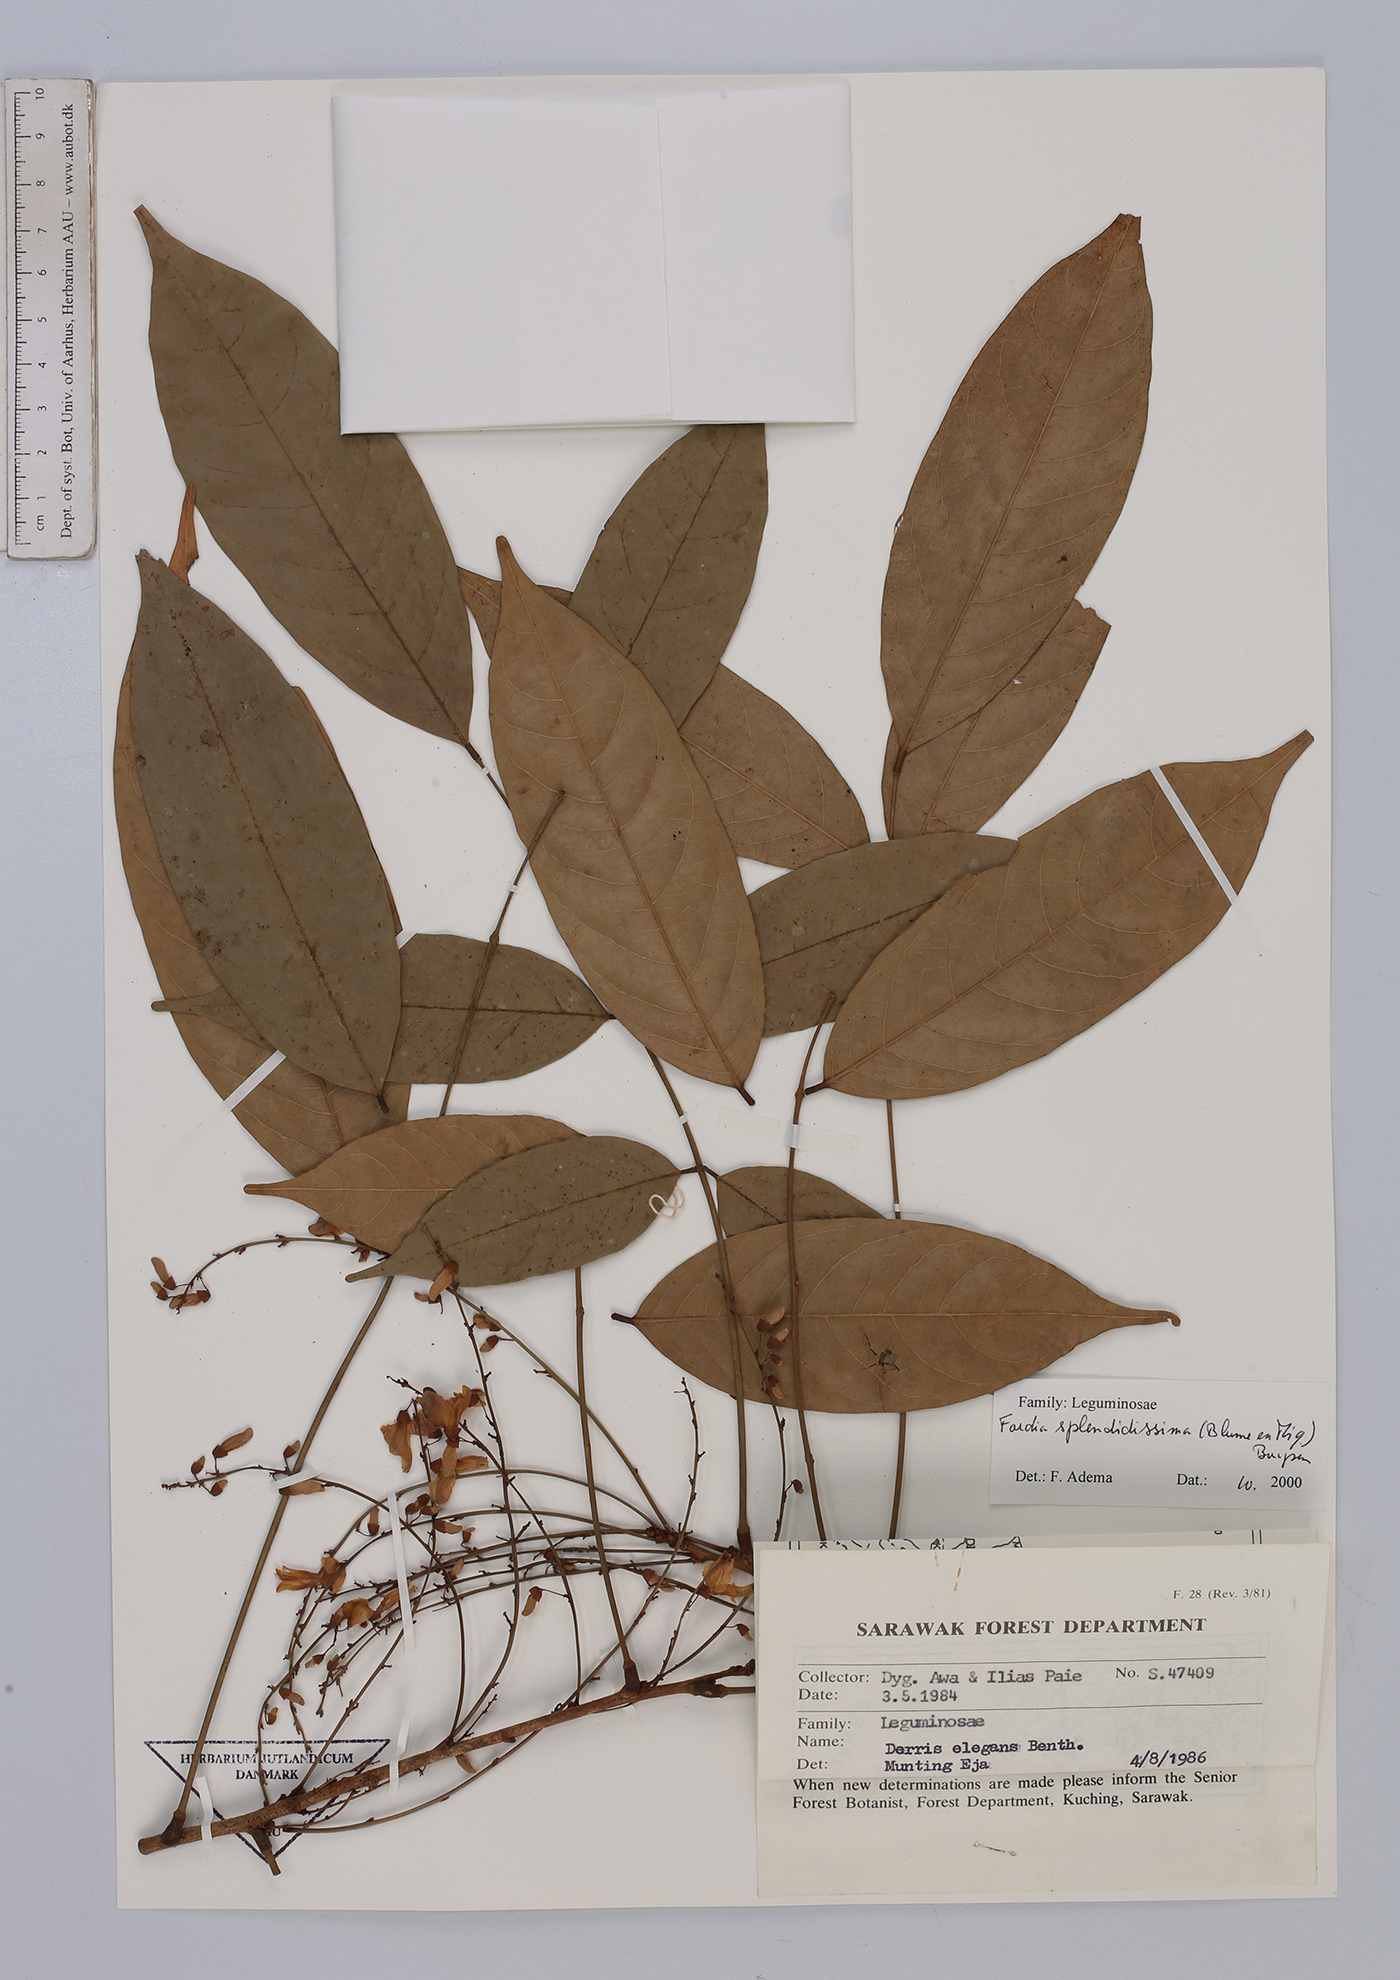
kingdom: Plantae
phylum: Tracheophyta
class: Magnoliopsida
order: Fabales
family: Fabaceae
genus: Fordia
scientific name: Fordia splendidissima
